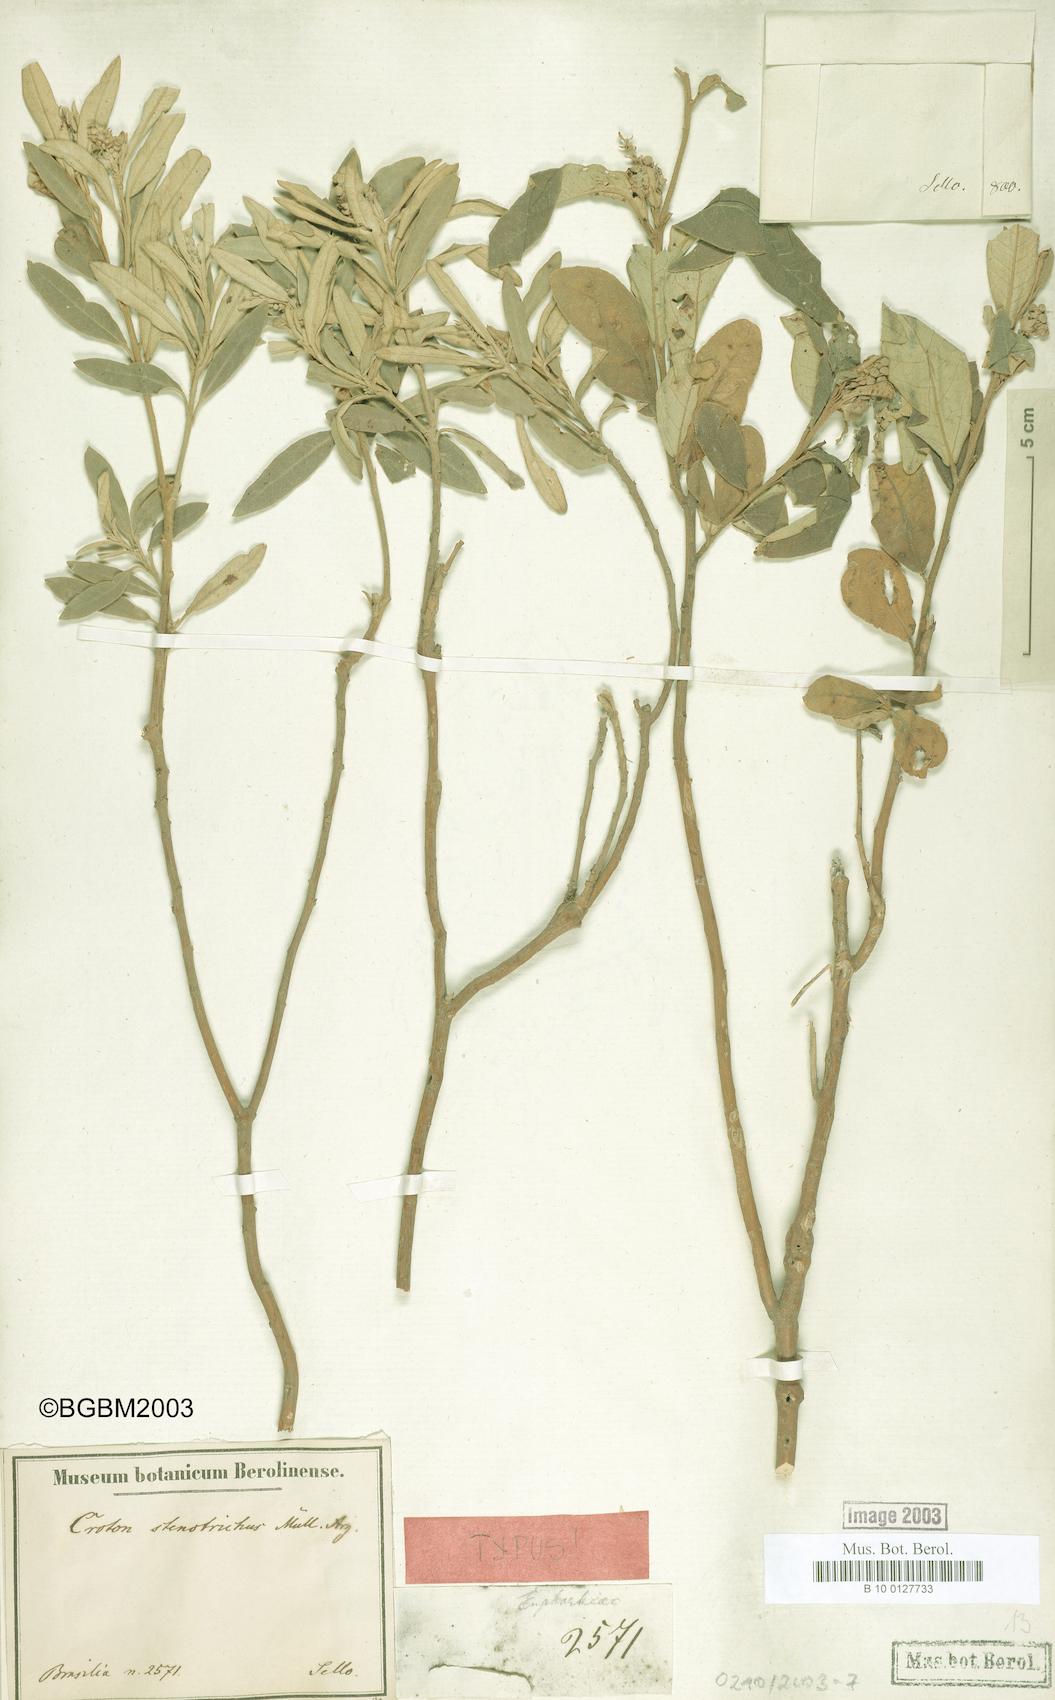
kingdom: Plantae
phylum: Tracheophyta
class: Magnoliopsida
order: Malpighiales
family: Euphorbiaceae
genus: Croton
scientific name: Croton stenotrichus
